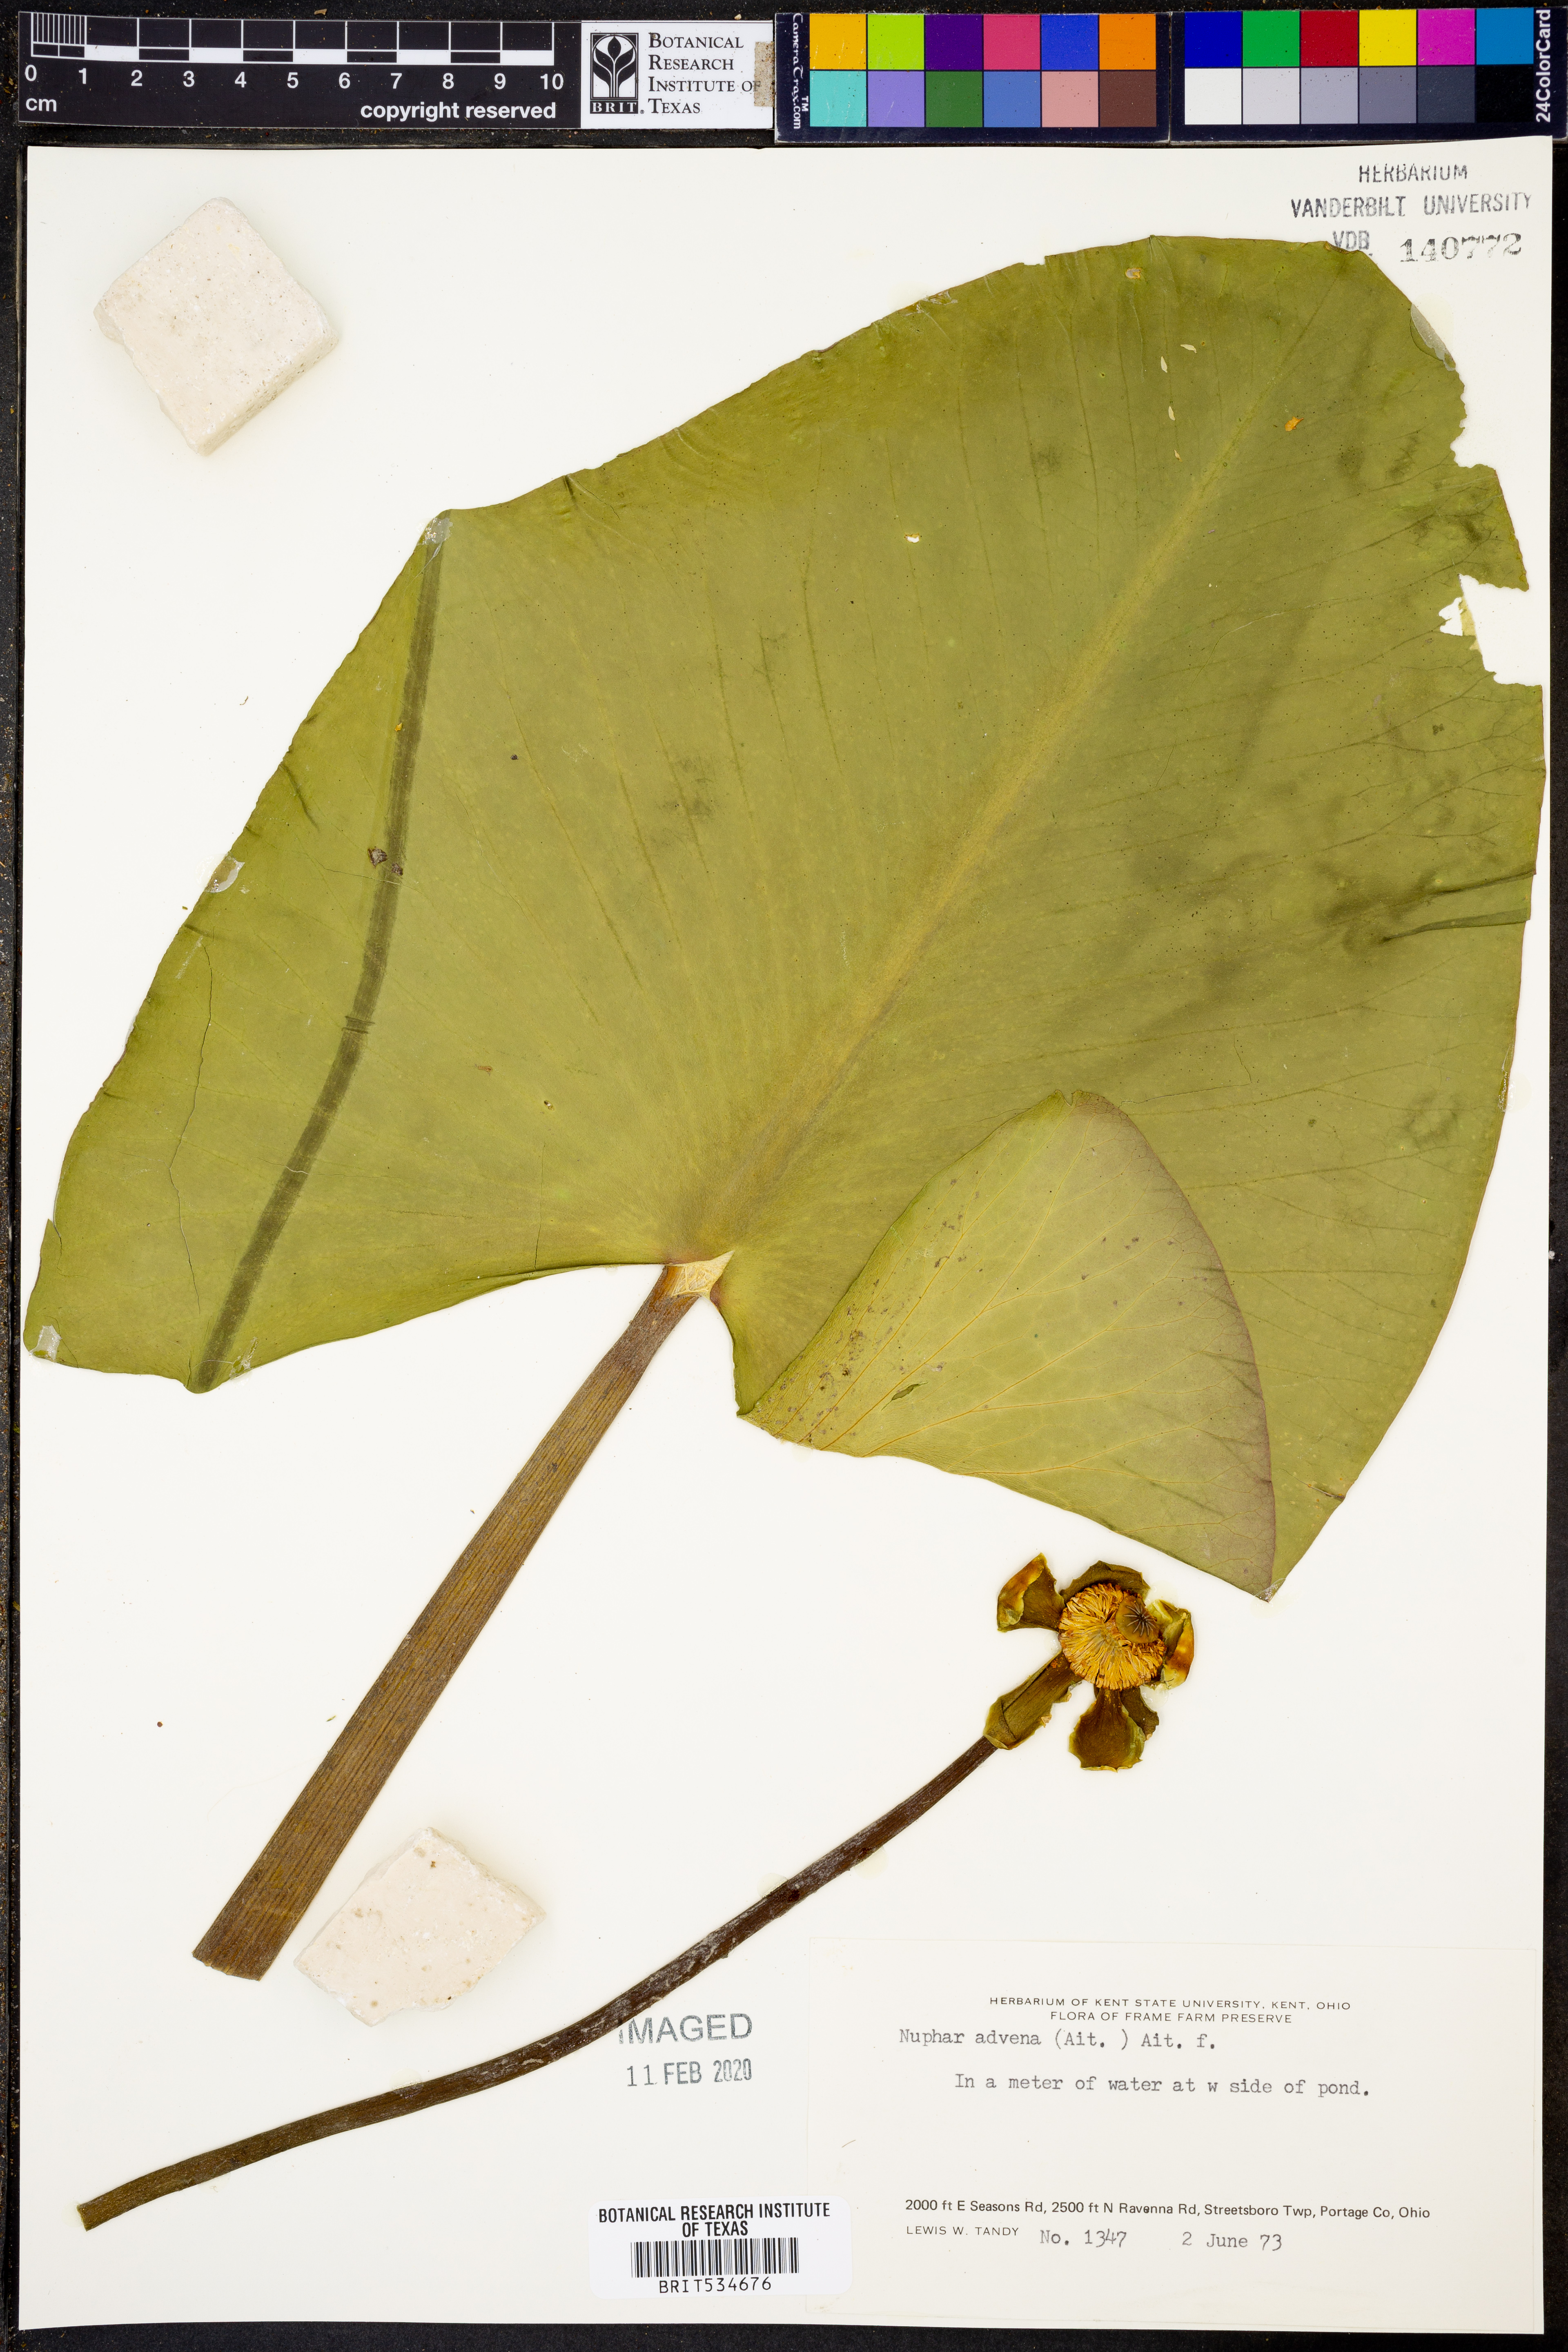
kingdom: Plantae
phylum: Tracheophyta
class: Magnoliopsida
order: Nymphaeales
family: Nymphaeaceae
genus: Nuphar
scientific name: Nuphar advena
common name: Spatter-dock
